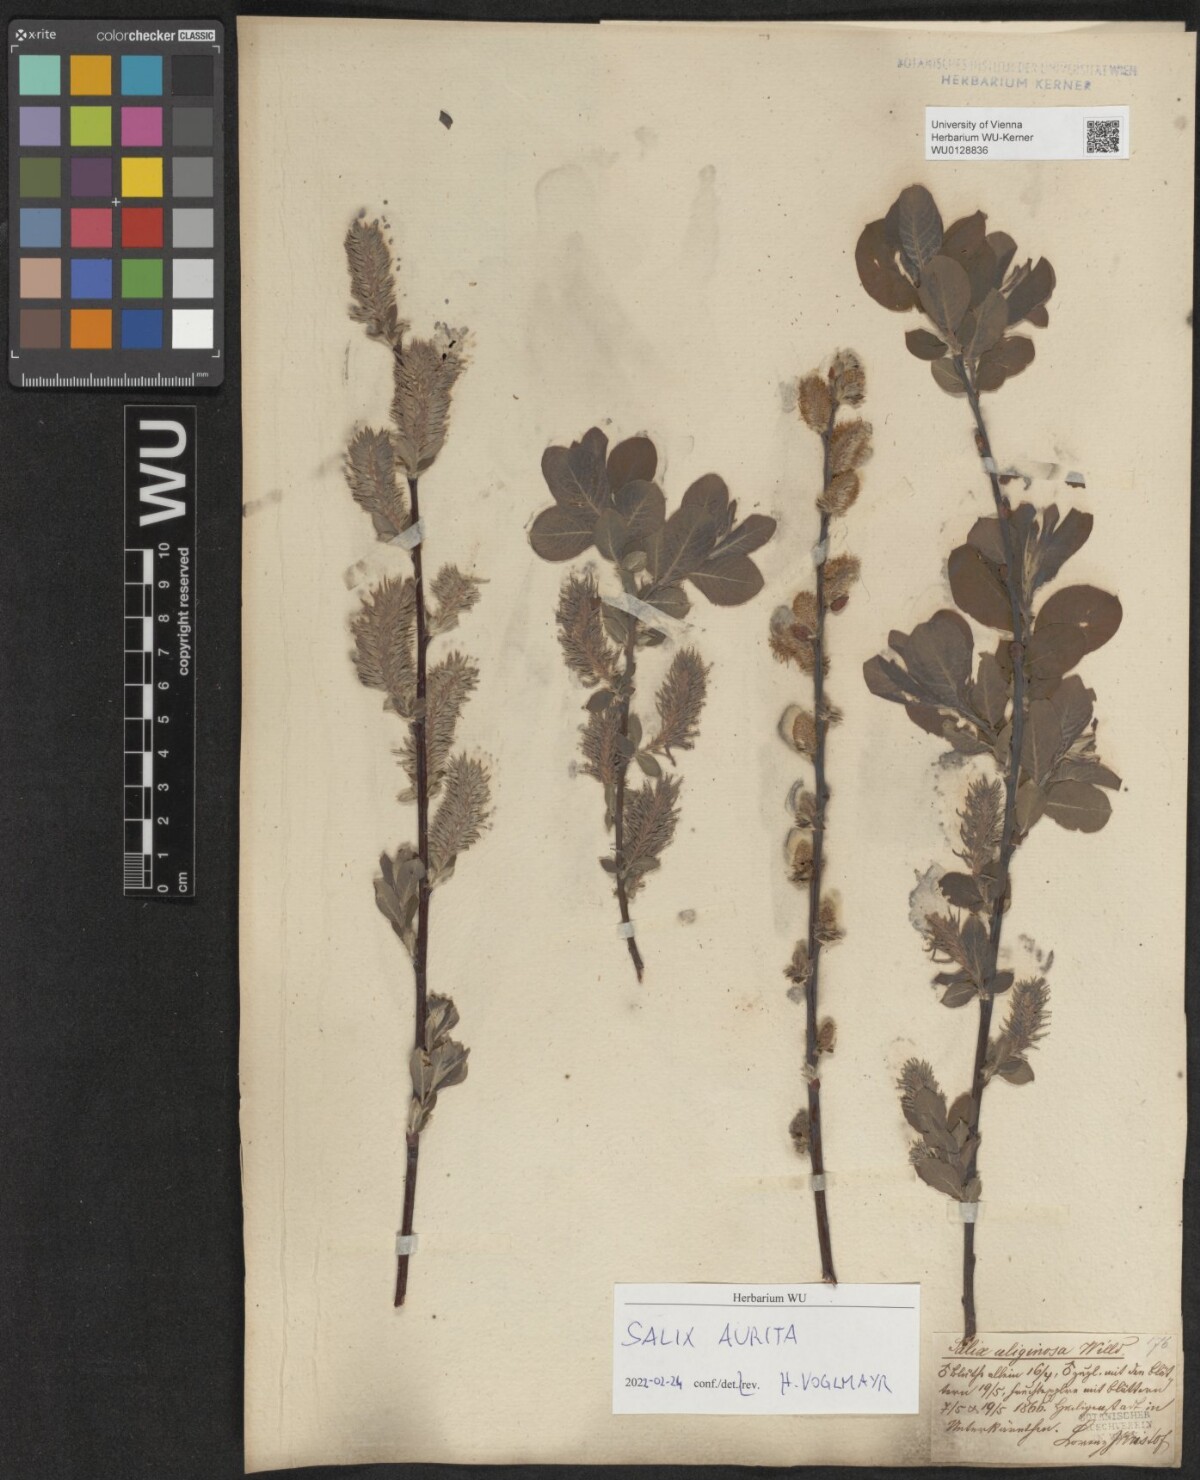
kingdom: Plantae
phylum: Tracheophyta
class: Magnoliopsida
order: Malpighiales
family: Salicaceae
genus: Salix
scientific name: Salix aurita
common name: Eared willow
